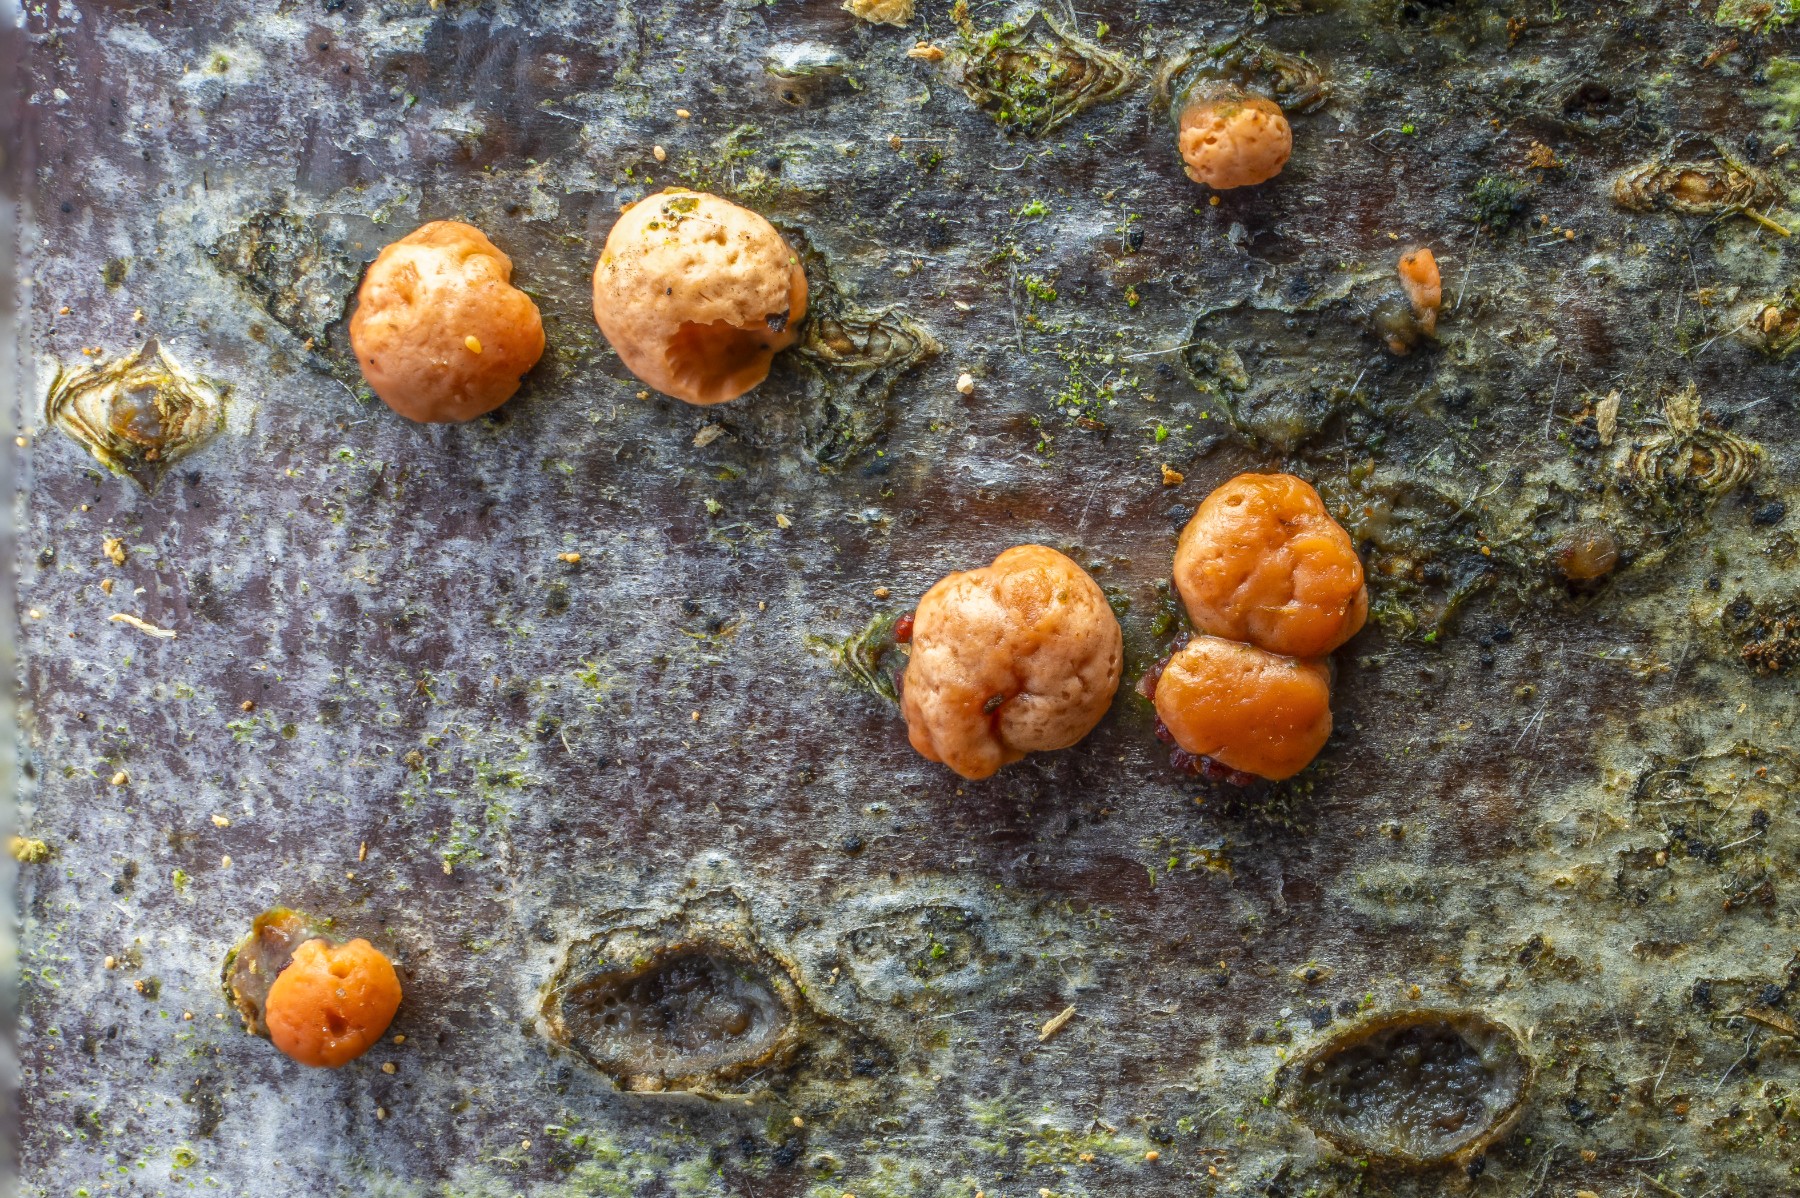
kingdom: Fungi
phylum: Ascomycota
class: Sordariomycetes
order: Hypocreales
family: Nectriaceae
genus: Nectria
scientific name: Nectria cinnabarina
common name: almindelig cinnobersvamp
